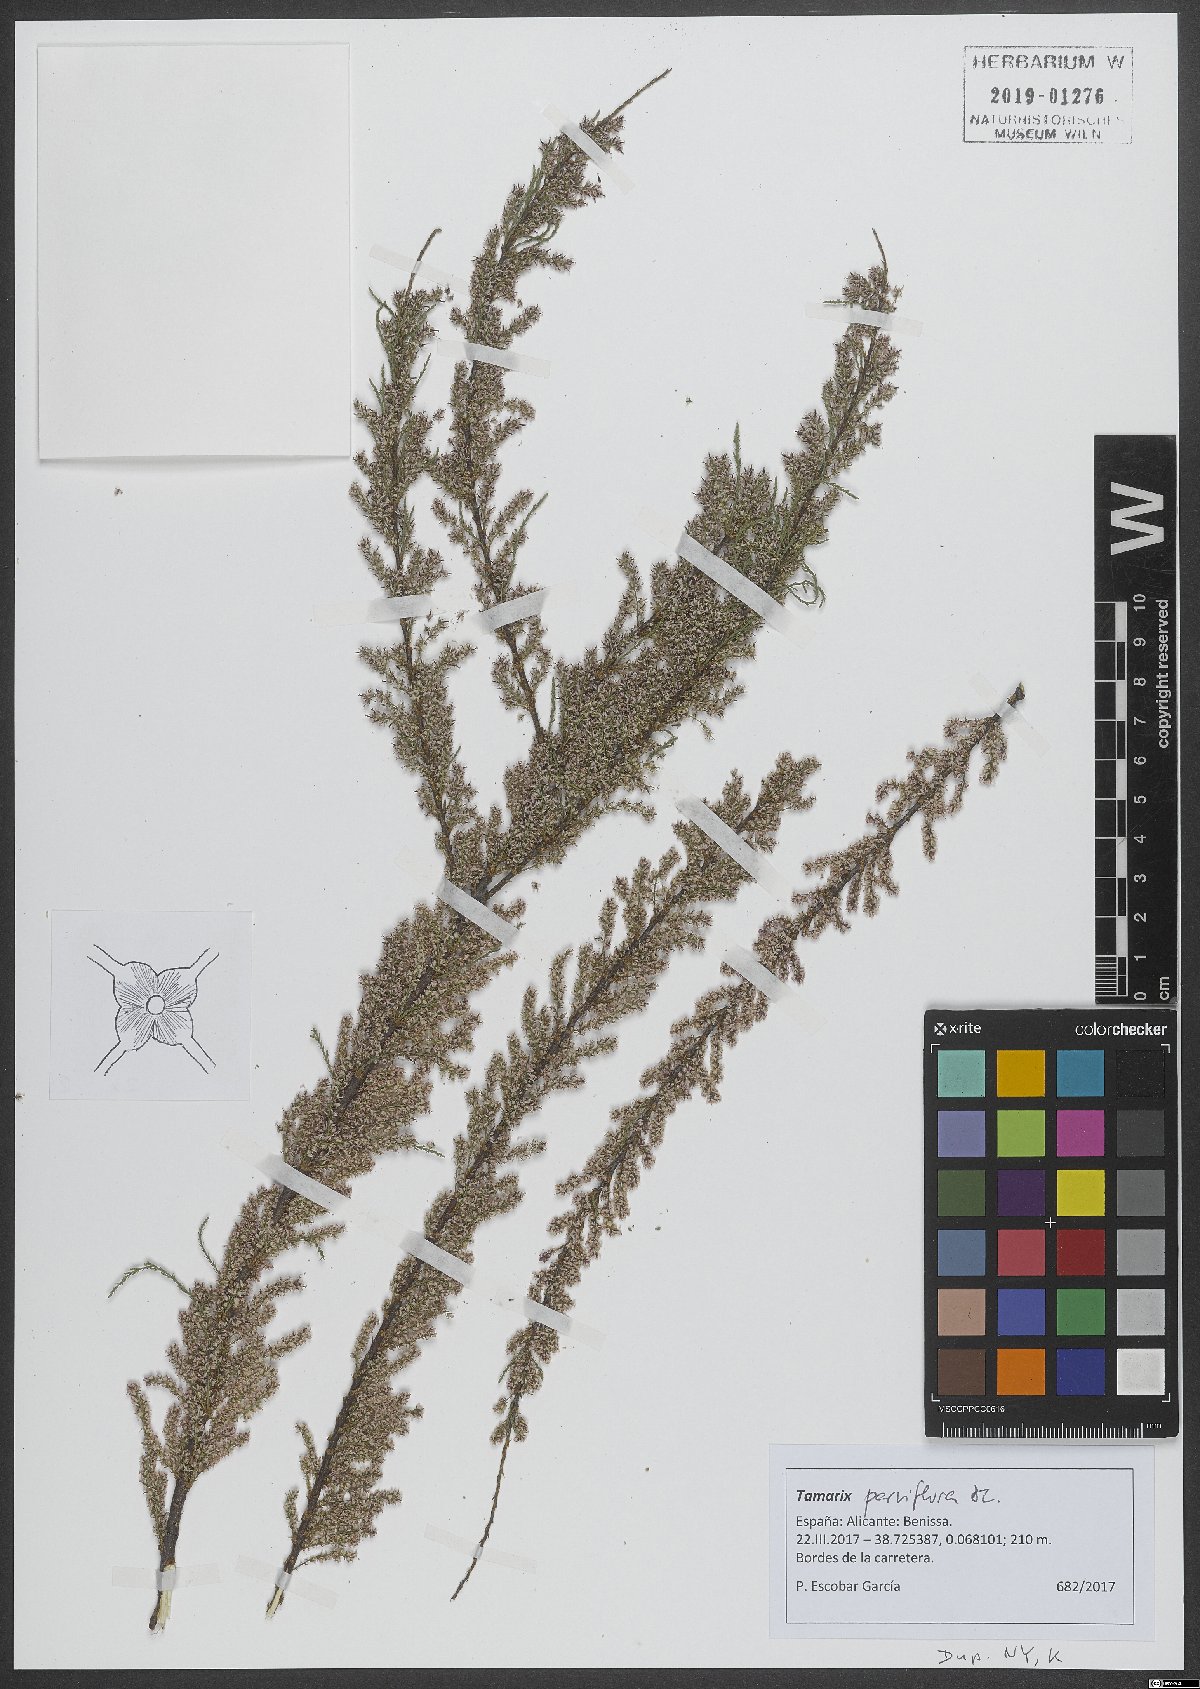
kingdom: Plantae
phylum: Tracheophyta
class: Magnoliopsida
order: Caryophyllales
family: Tamaricaceae
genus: Tamarix
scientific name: Tamarix parviflora
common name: Smallflower tamarisk
